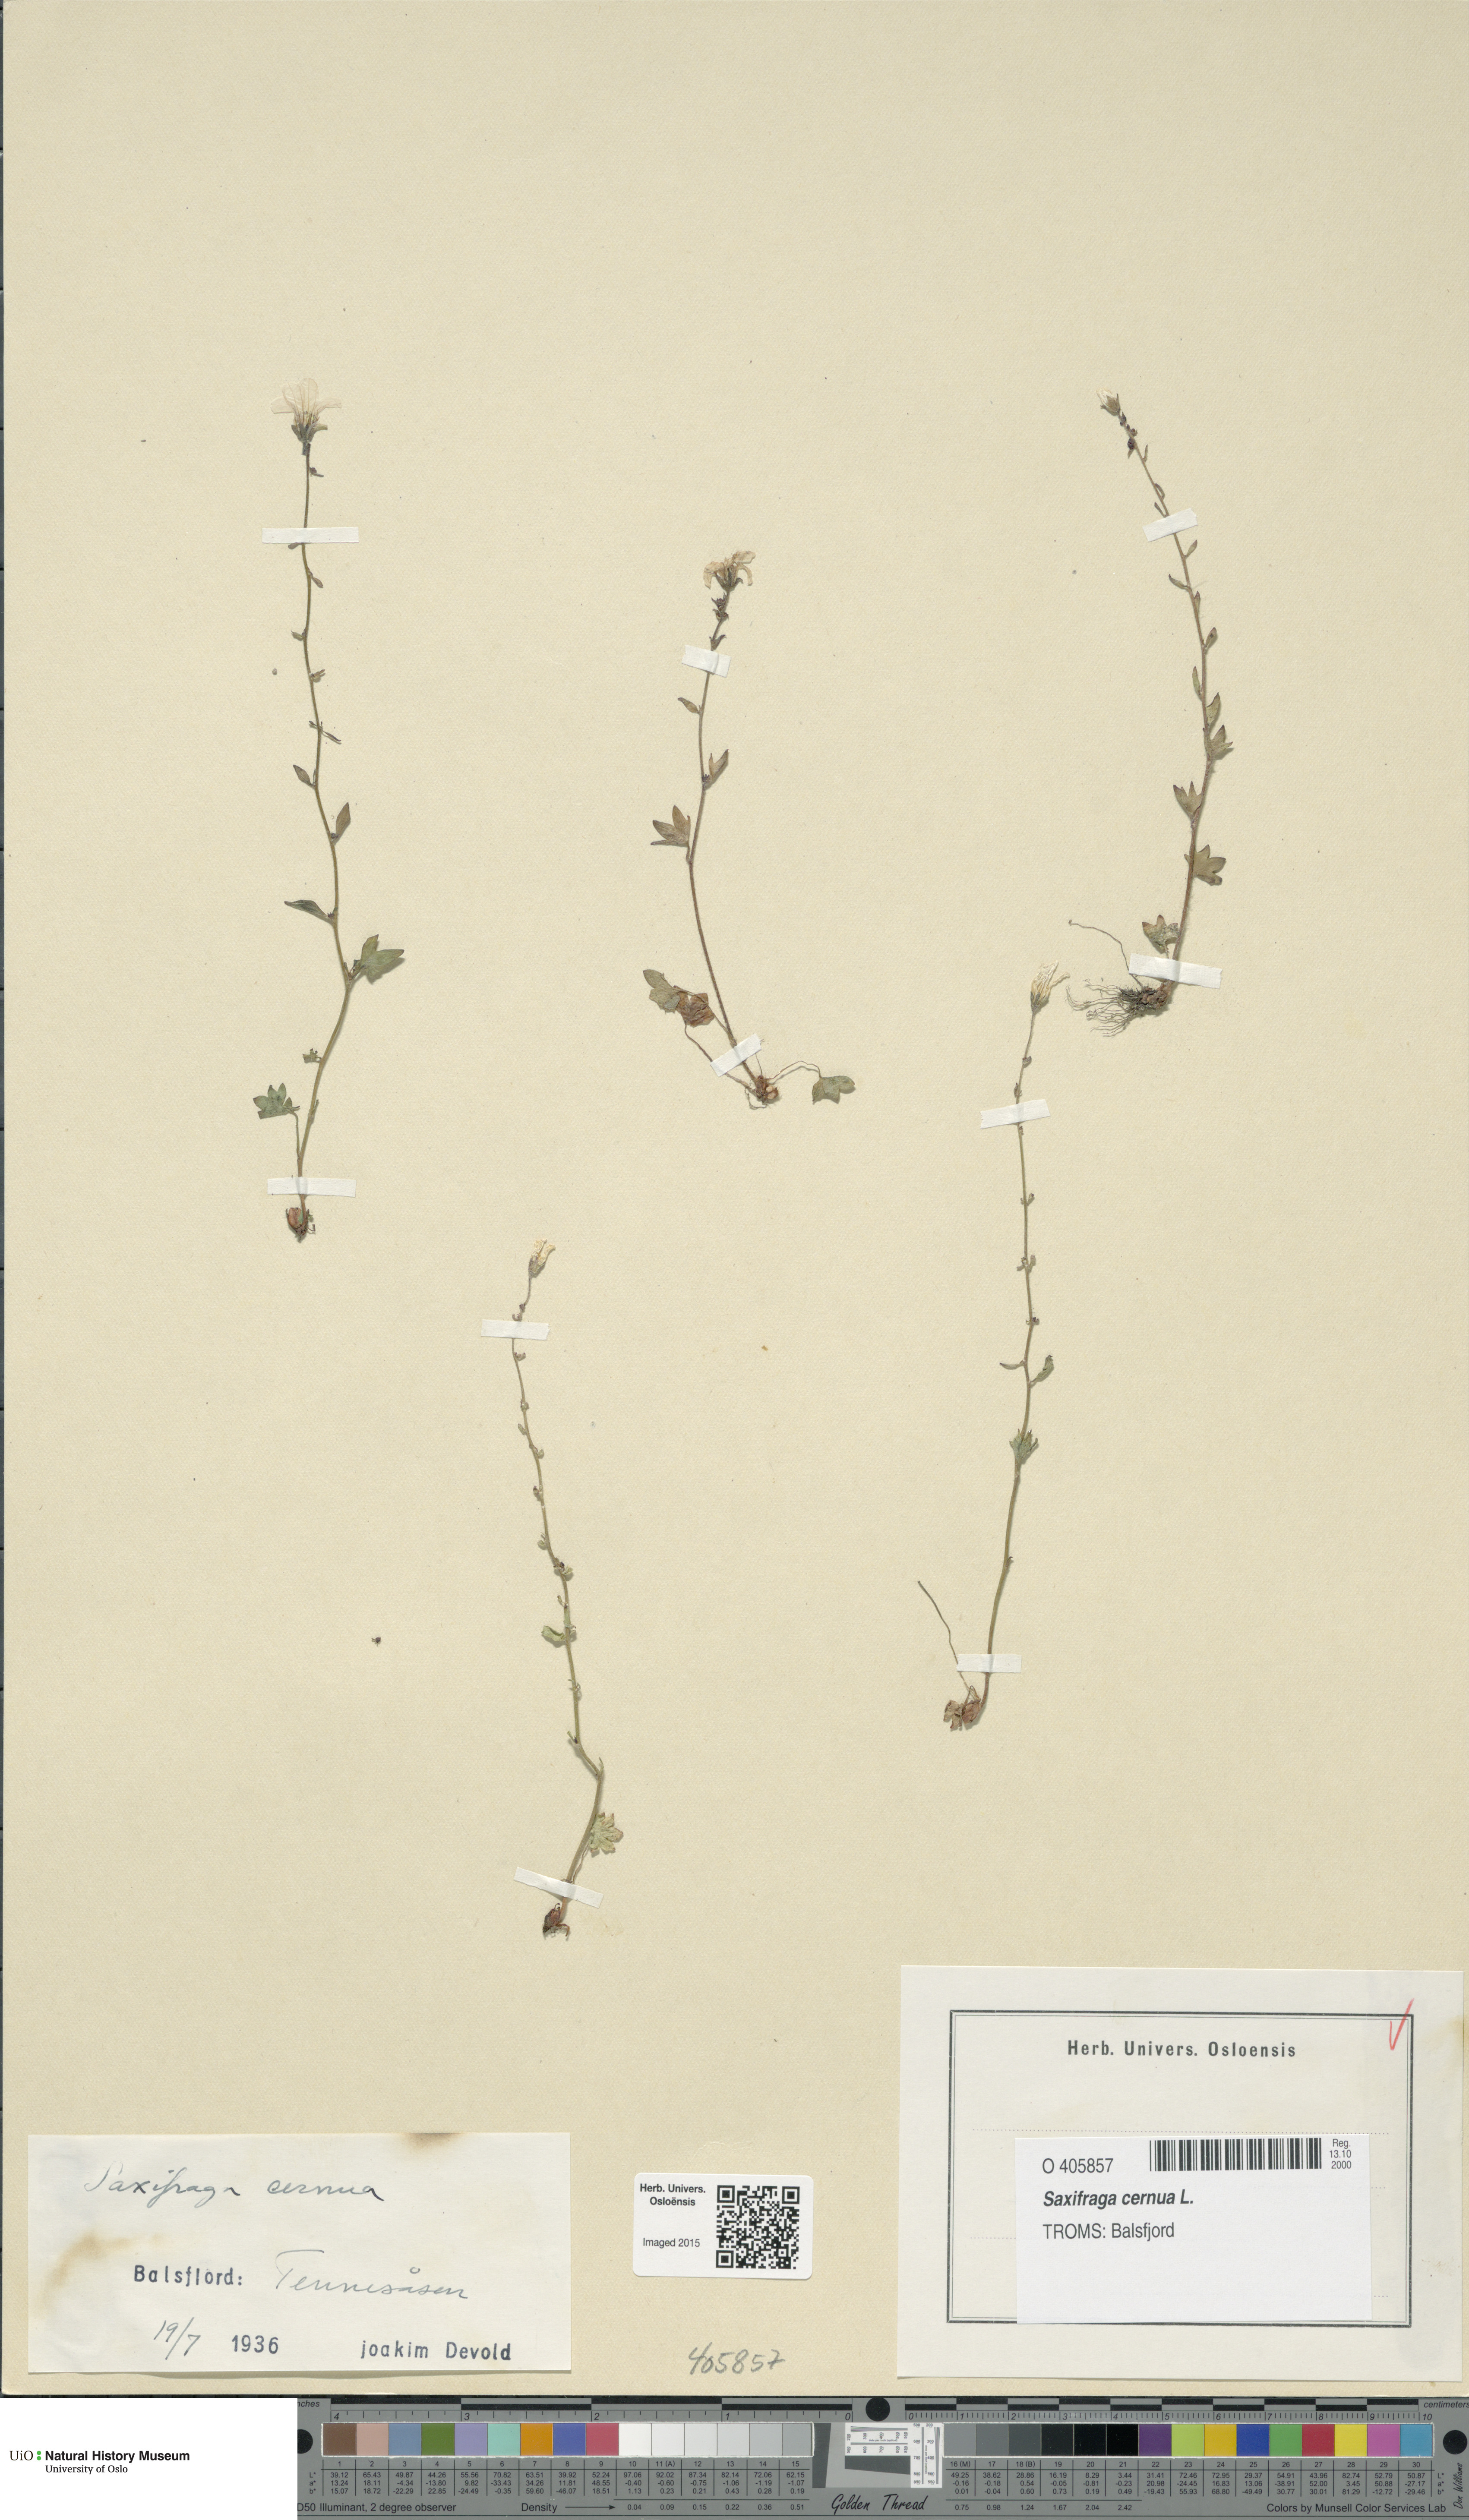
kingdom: Plantae
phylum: Tracheophyta
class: Magnoliopsida
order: Saxifragales
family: Saxifragaceae
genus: Saxifraga
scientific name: Saxifraga cernua
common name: Drooping saxifrage
